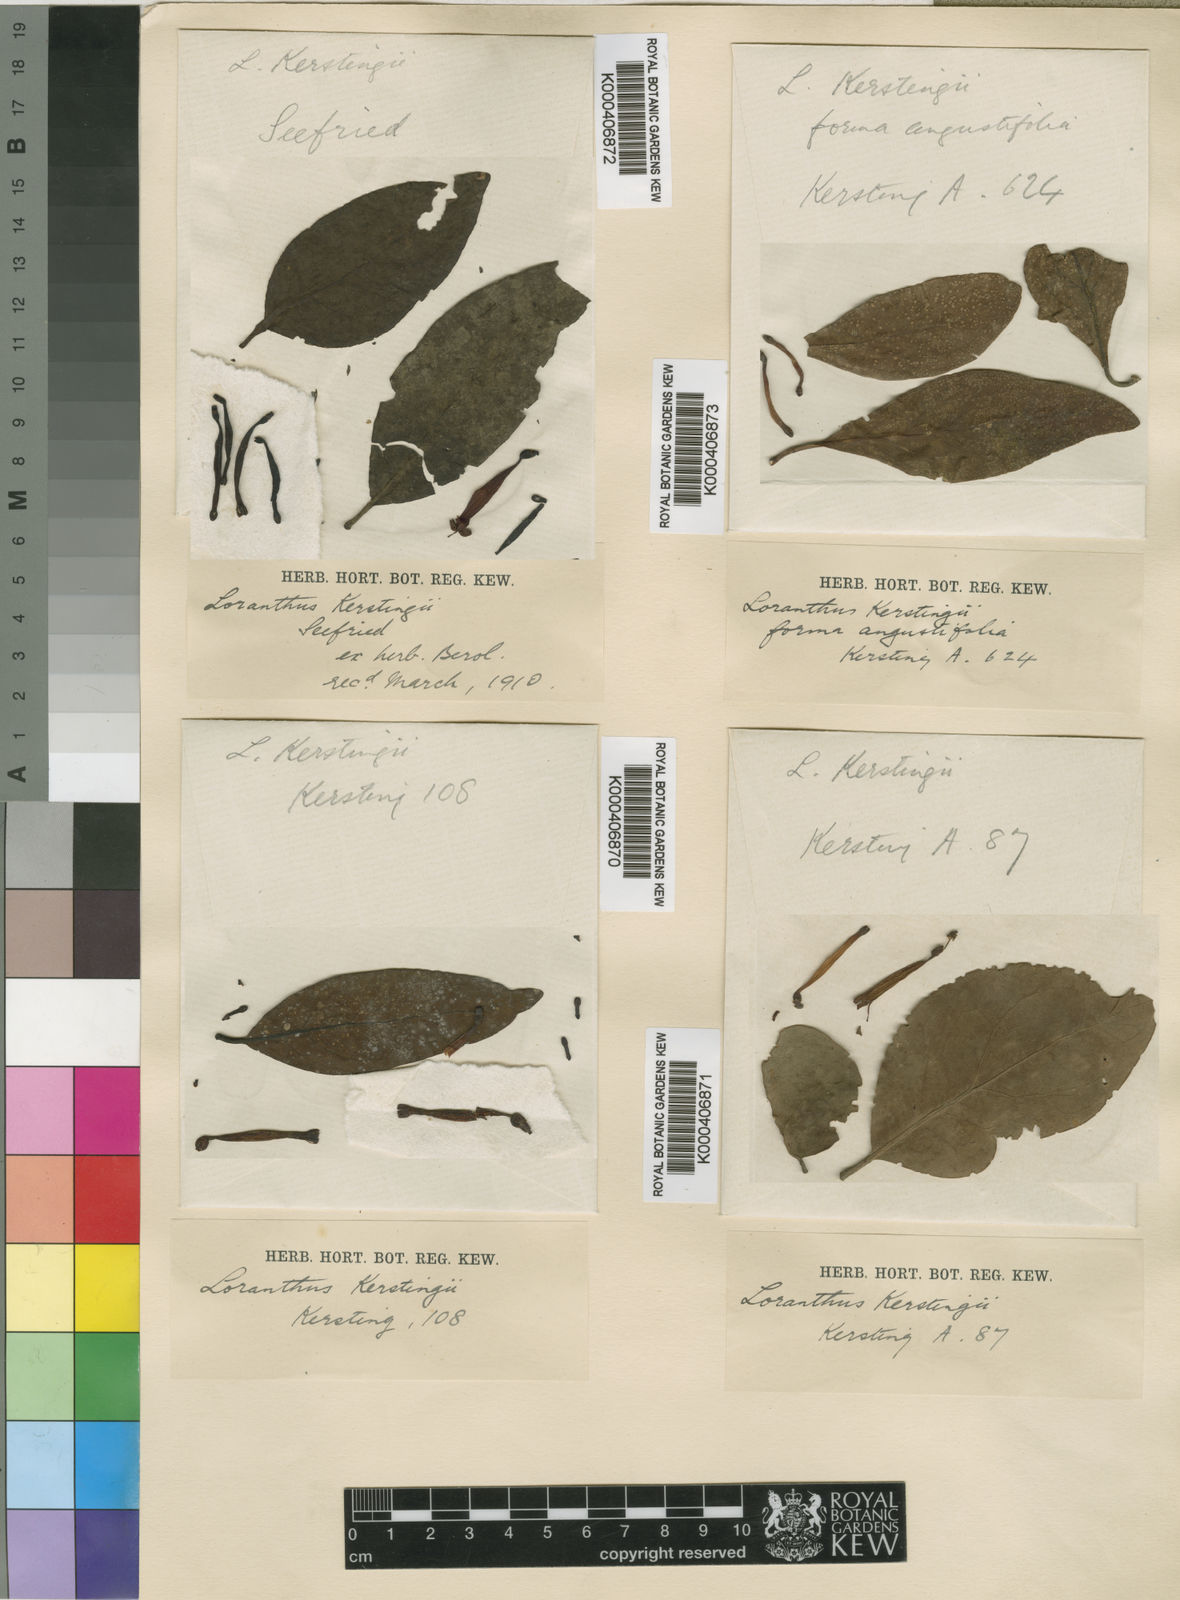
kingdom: Plantae
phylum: Tracheophyta
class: Magnoliopsida
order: Santalales
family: Loranthaceae
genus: Tapinanthus
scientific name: Tapinanthus
